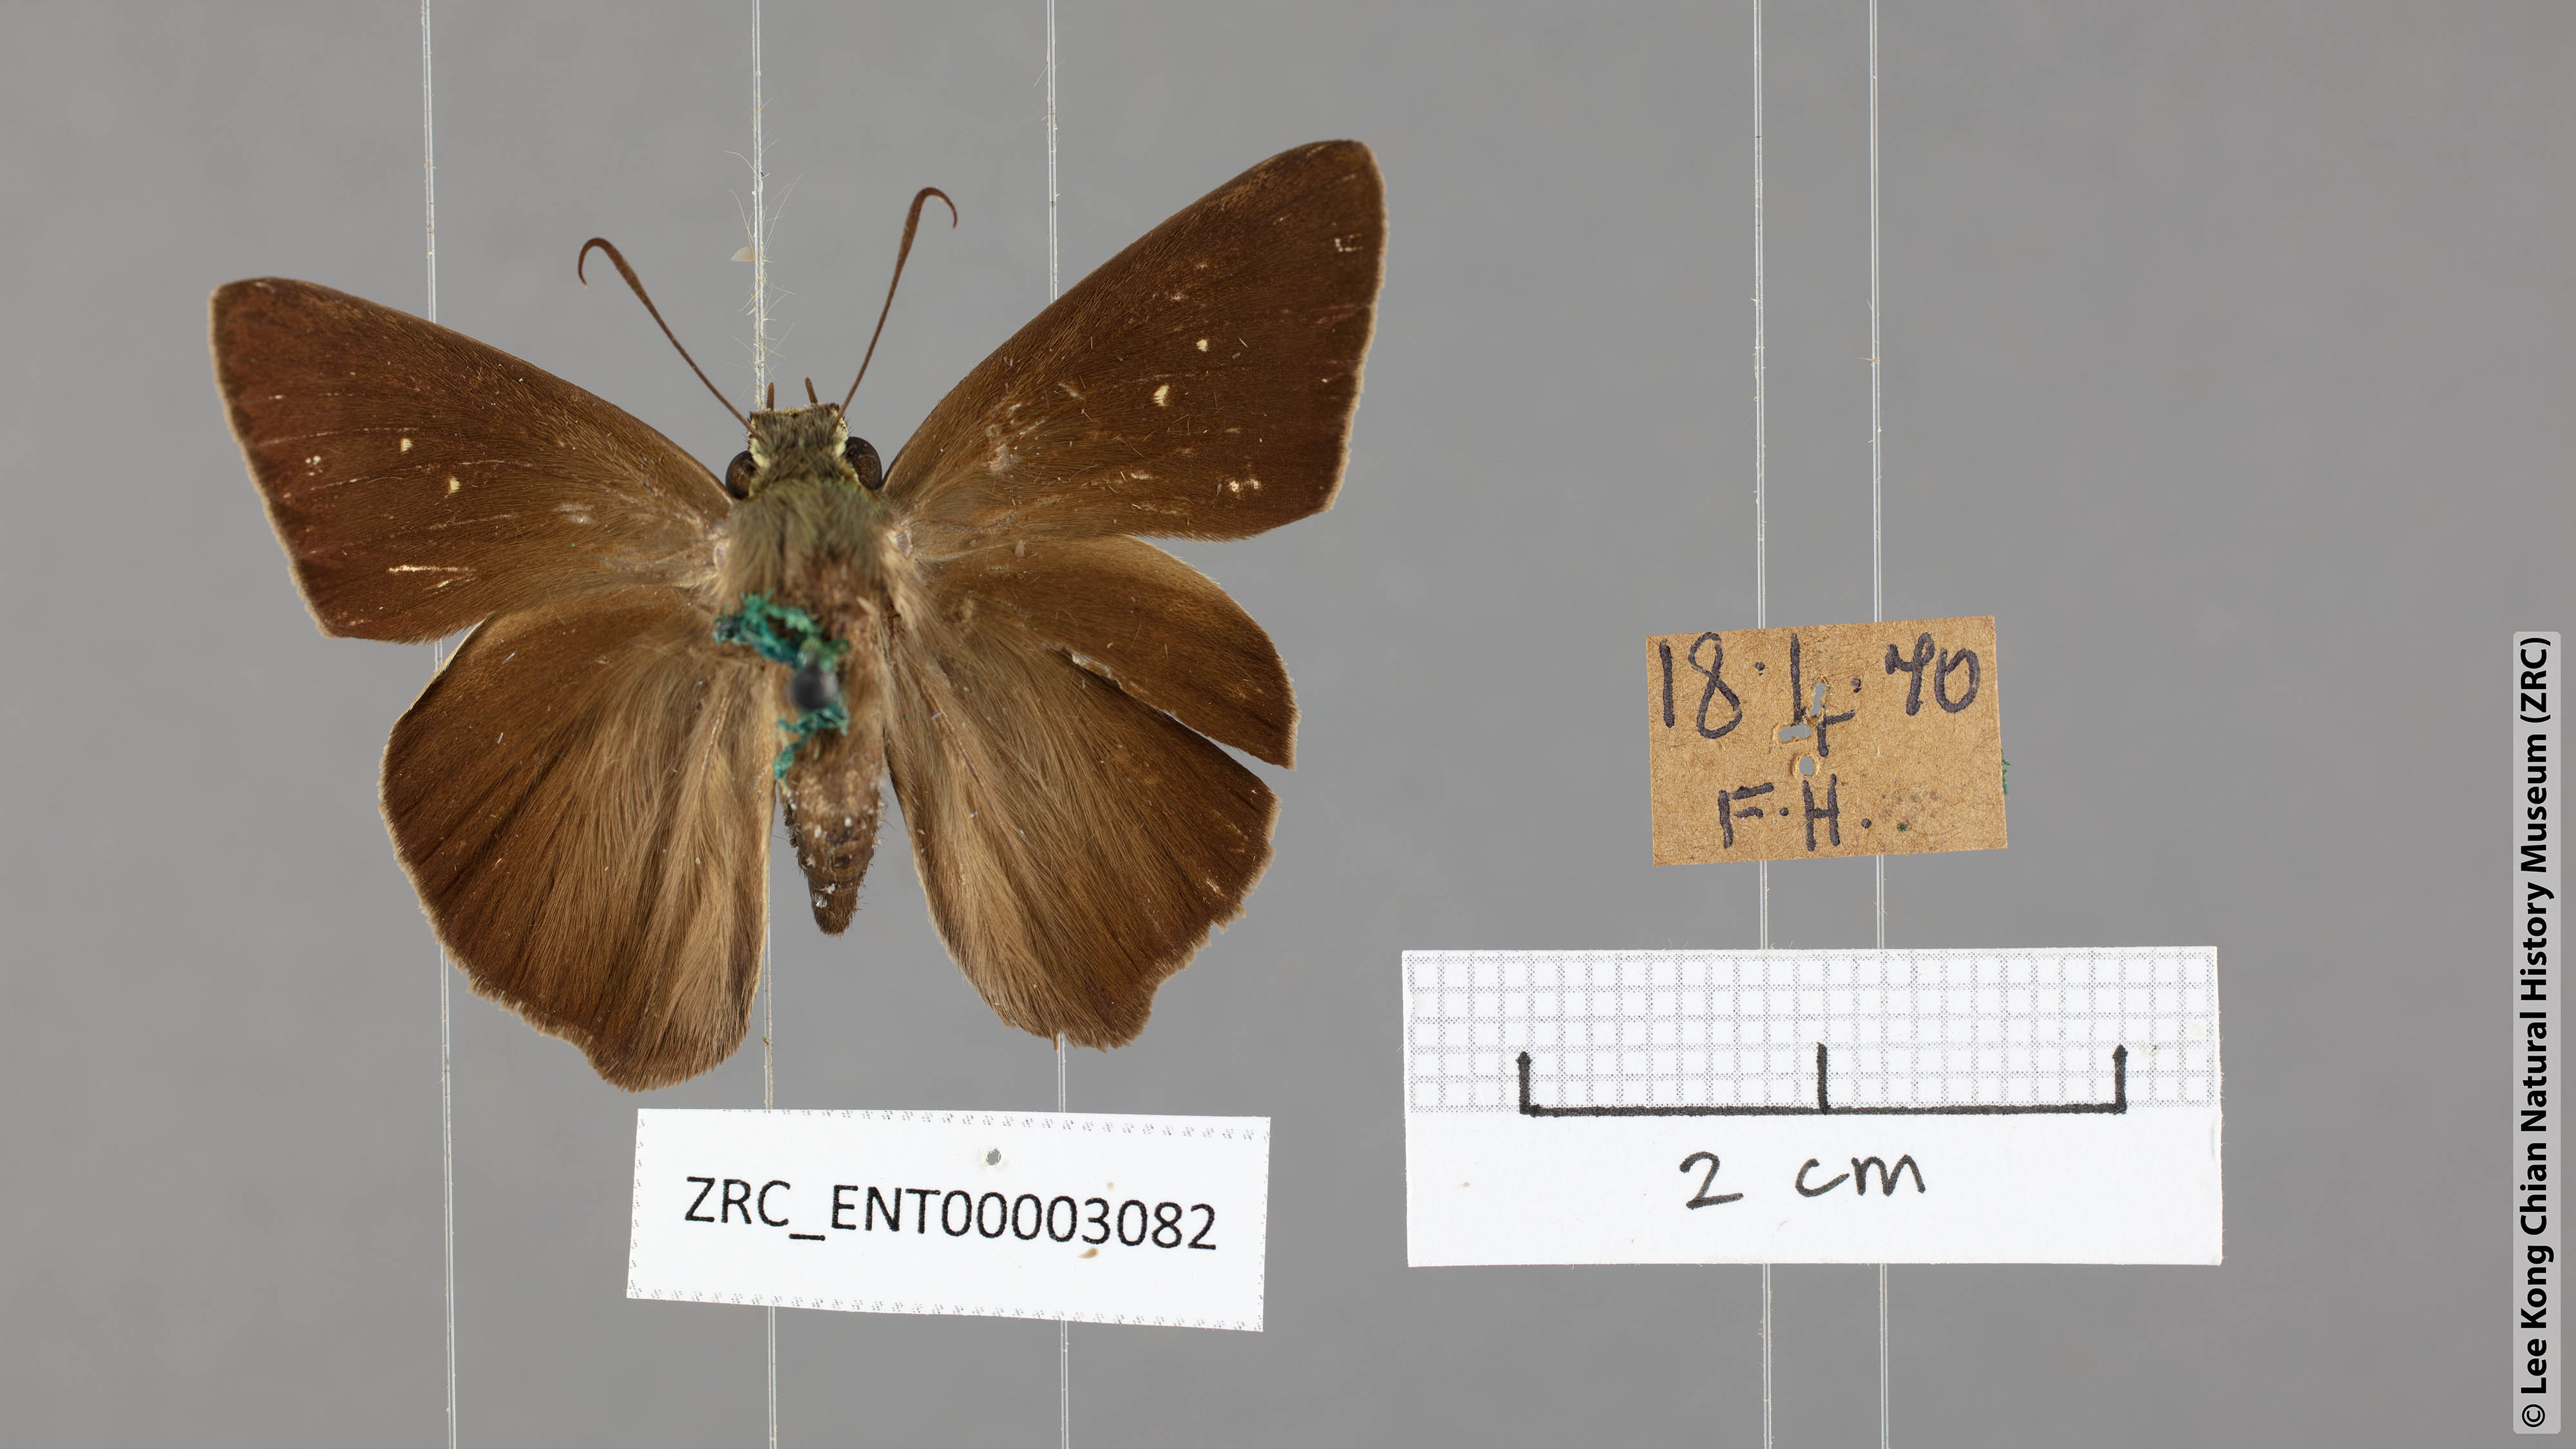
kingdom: Animalia
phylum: Arthropoda
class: Insecta
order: Lepidoptera
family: Hesperiidae
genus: Hasora
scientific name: Hasora taminatus
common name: White banded awl
